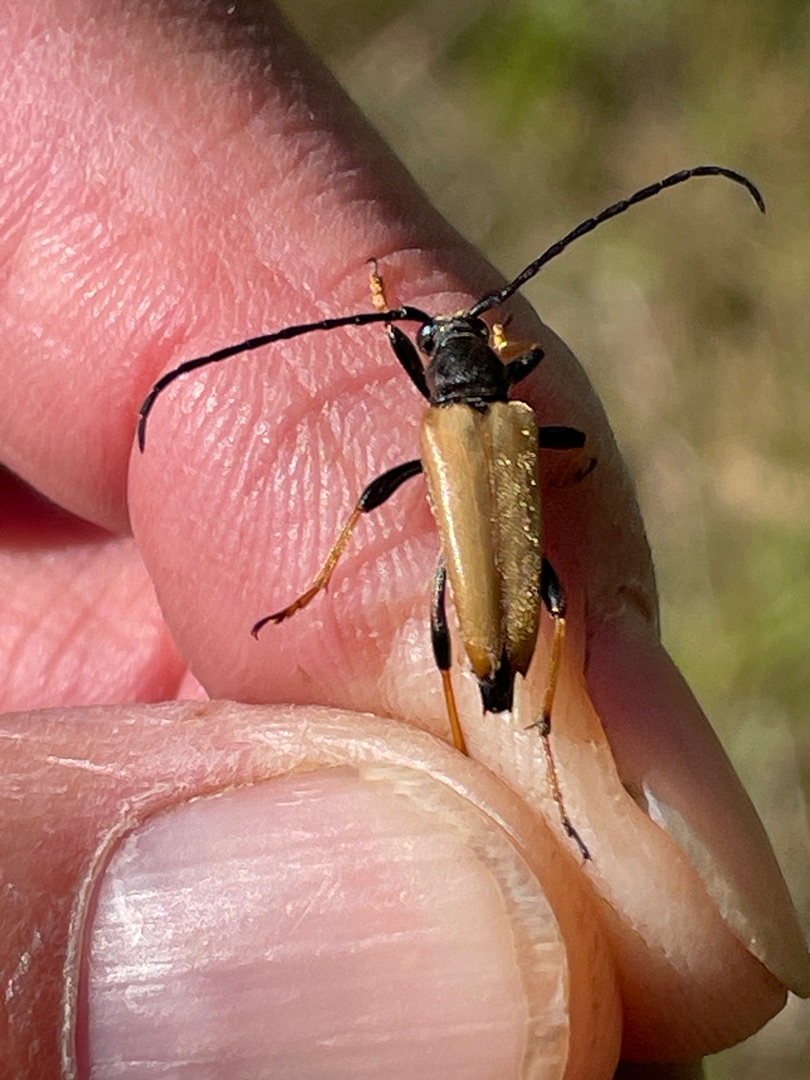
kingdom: Animalia
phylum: Arthropoda
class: Insecta
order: Coleoptera
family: Cerambycidae
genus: Stictoleptura
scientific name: Stictoleptura rubra
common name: Rød blomsterbuk
